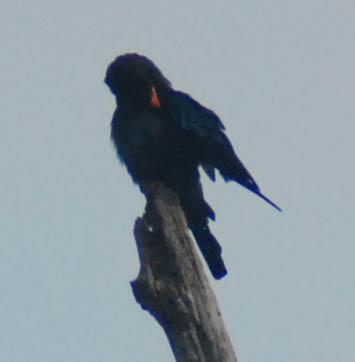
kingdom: Animalia
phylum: Chordata
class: Aves
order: Coraciiformes
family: Coraciidae
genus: Eurystomus
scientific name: Eurystomus orientalis
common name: Oriental dollarbird
